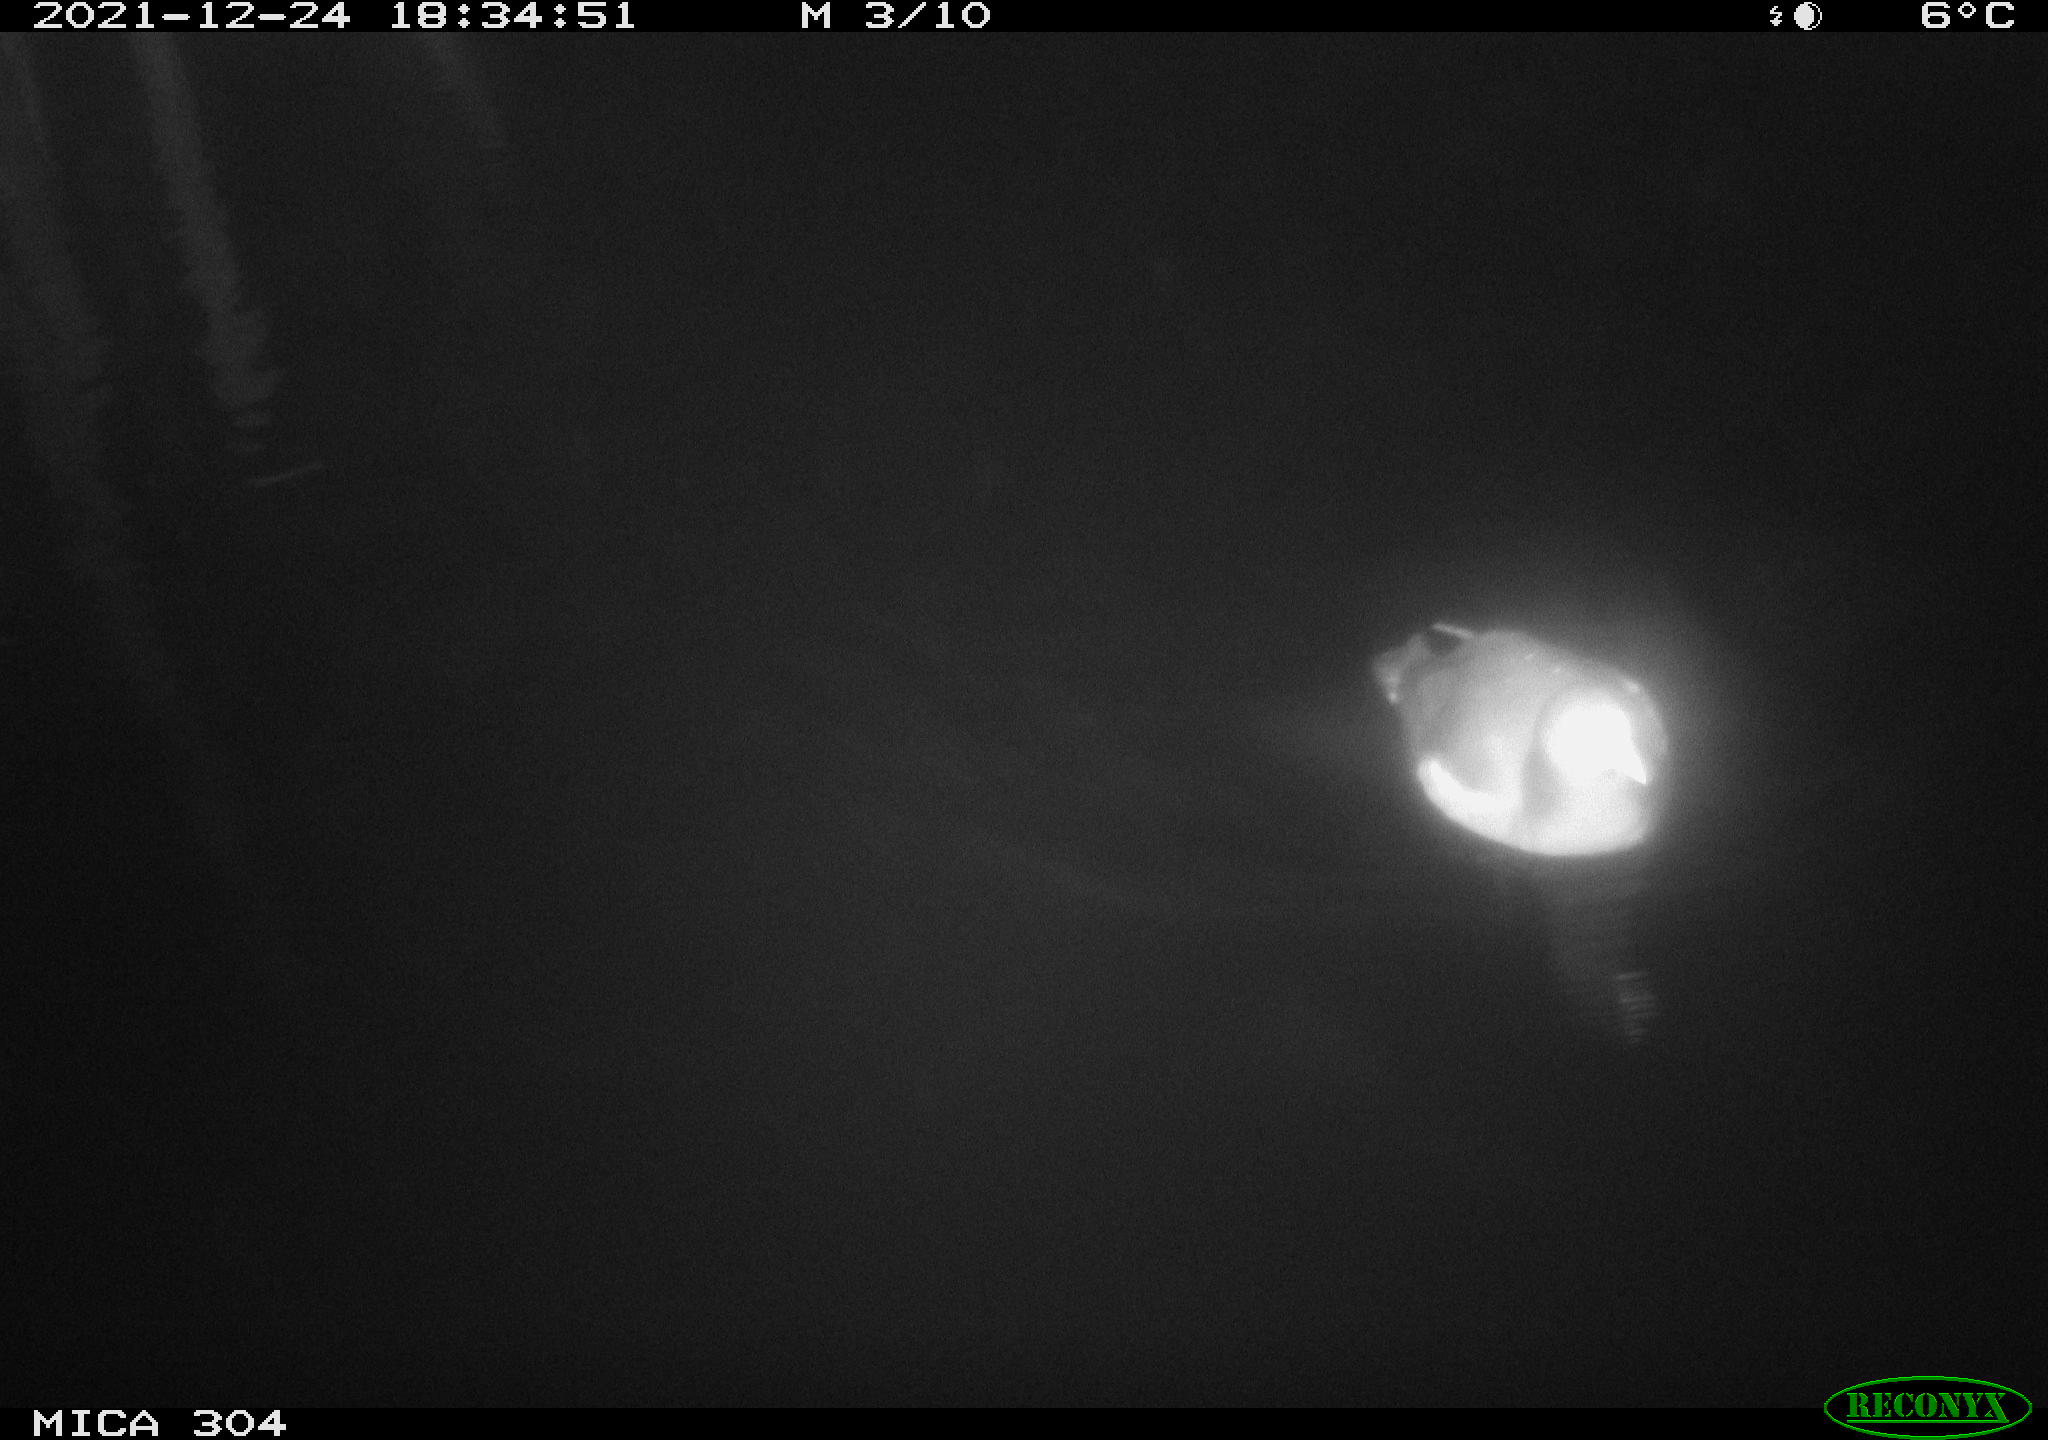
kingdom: Animalia
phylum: Chordata
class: Aves
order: Gruiformes
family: Rallidae
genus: Gallinula
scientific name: Gallinula chloropus
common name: Common moorhen
